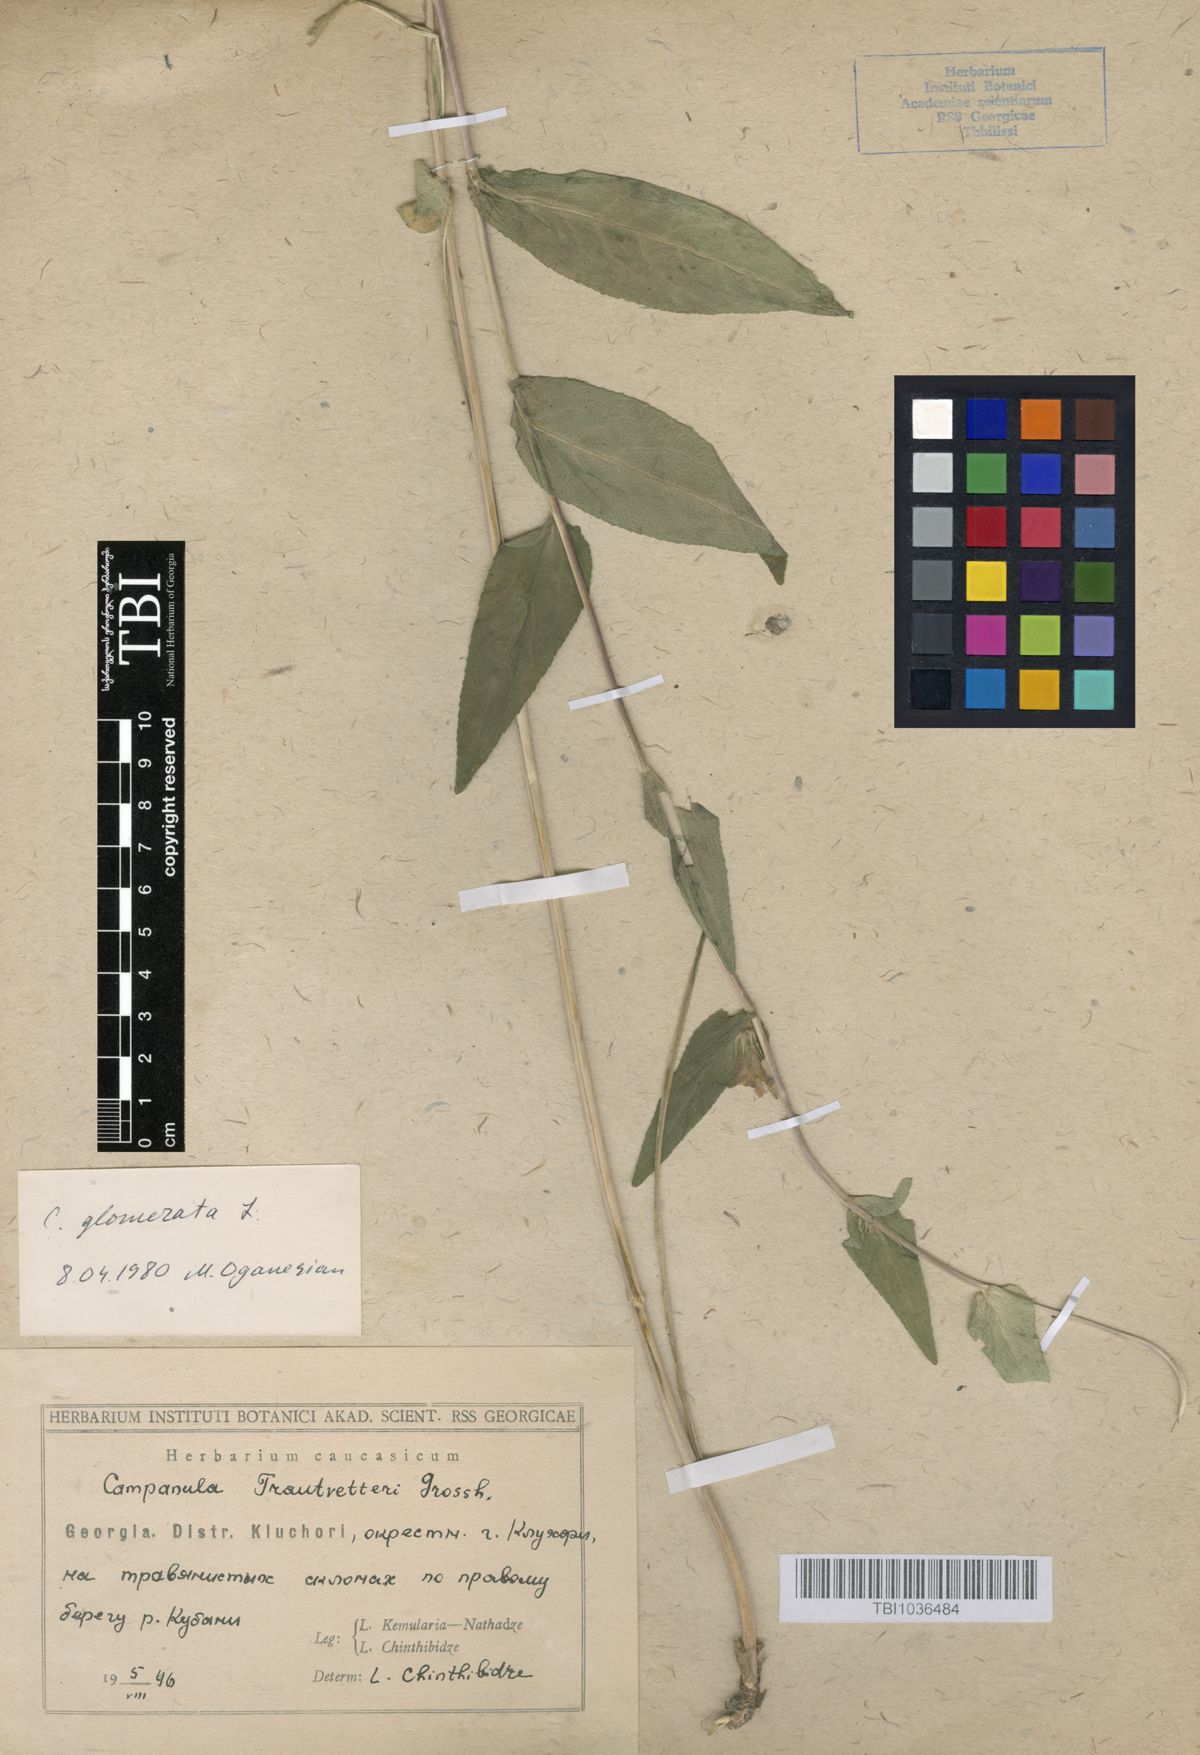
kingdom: Plantae
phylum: Tracheophyta
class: Magnoliopsida
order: Asterales
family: Campanulaceae
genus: Campanula
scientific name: Campanula glomerata
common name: Clustered bellflower
